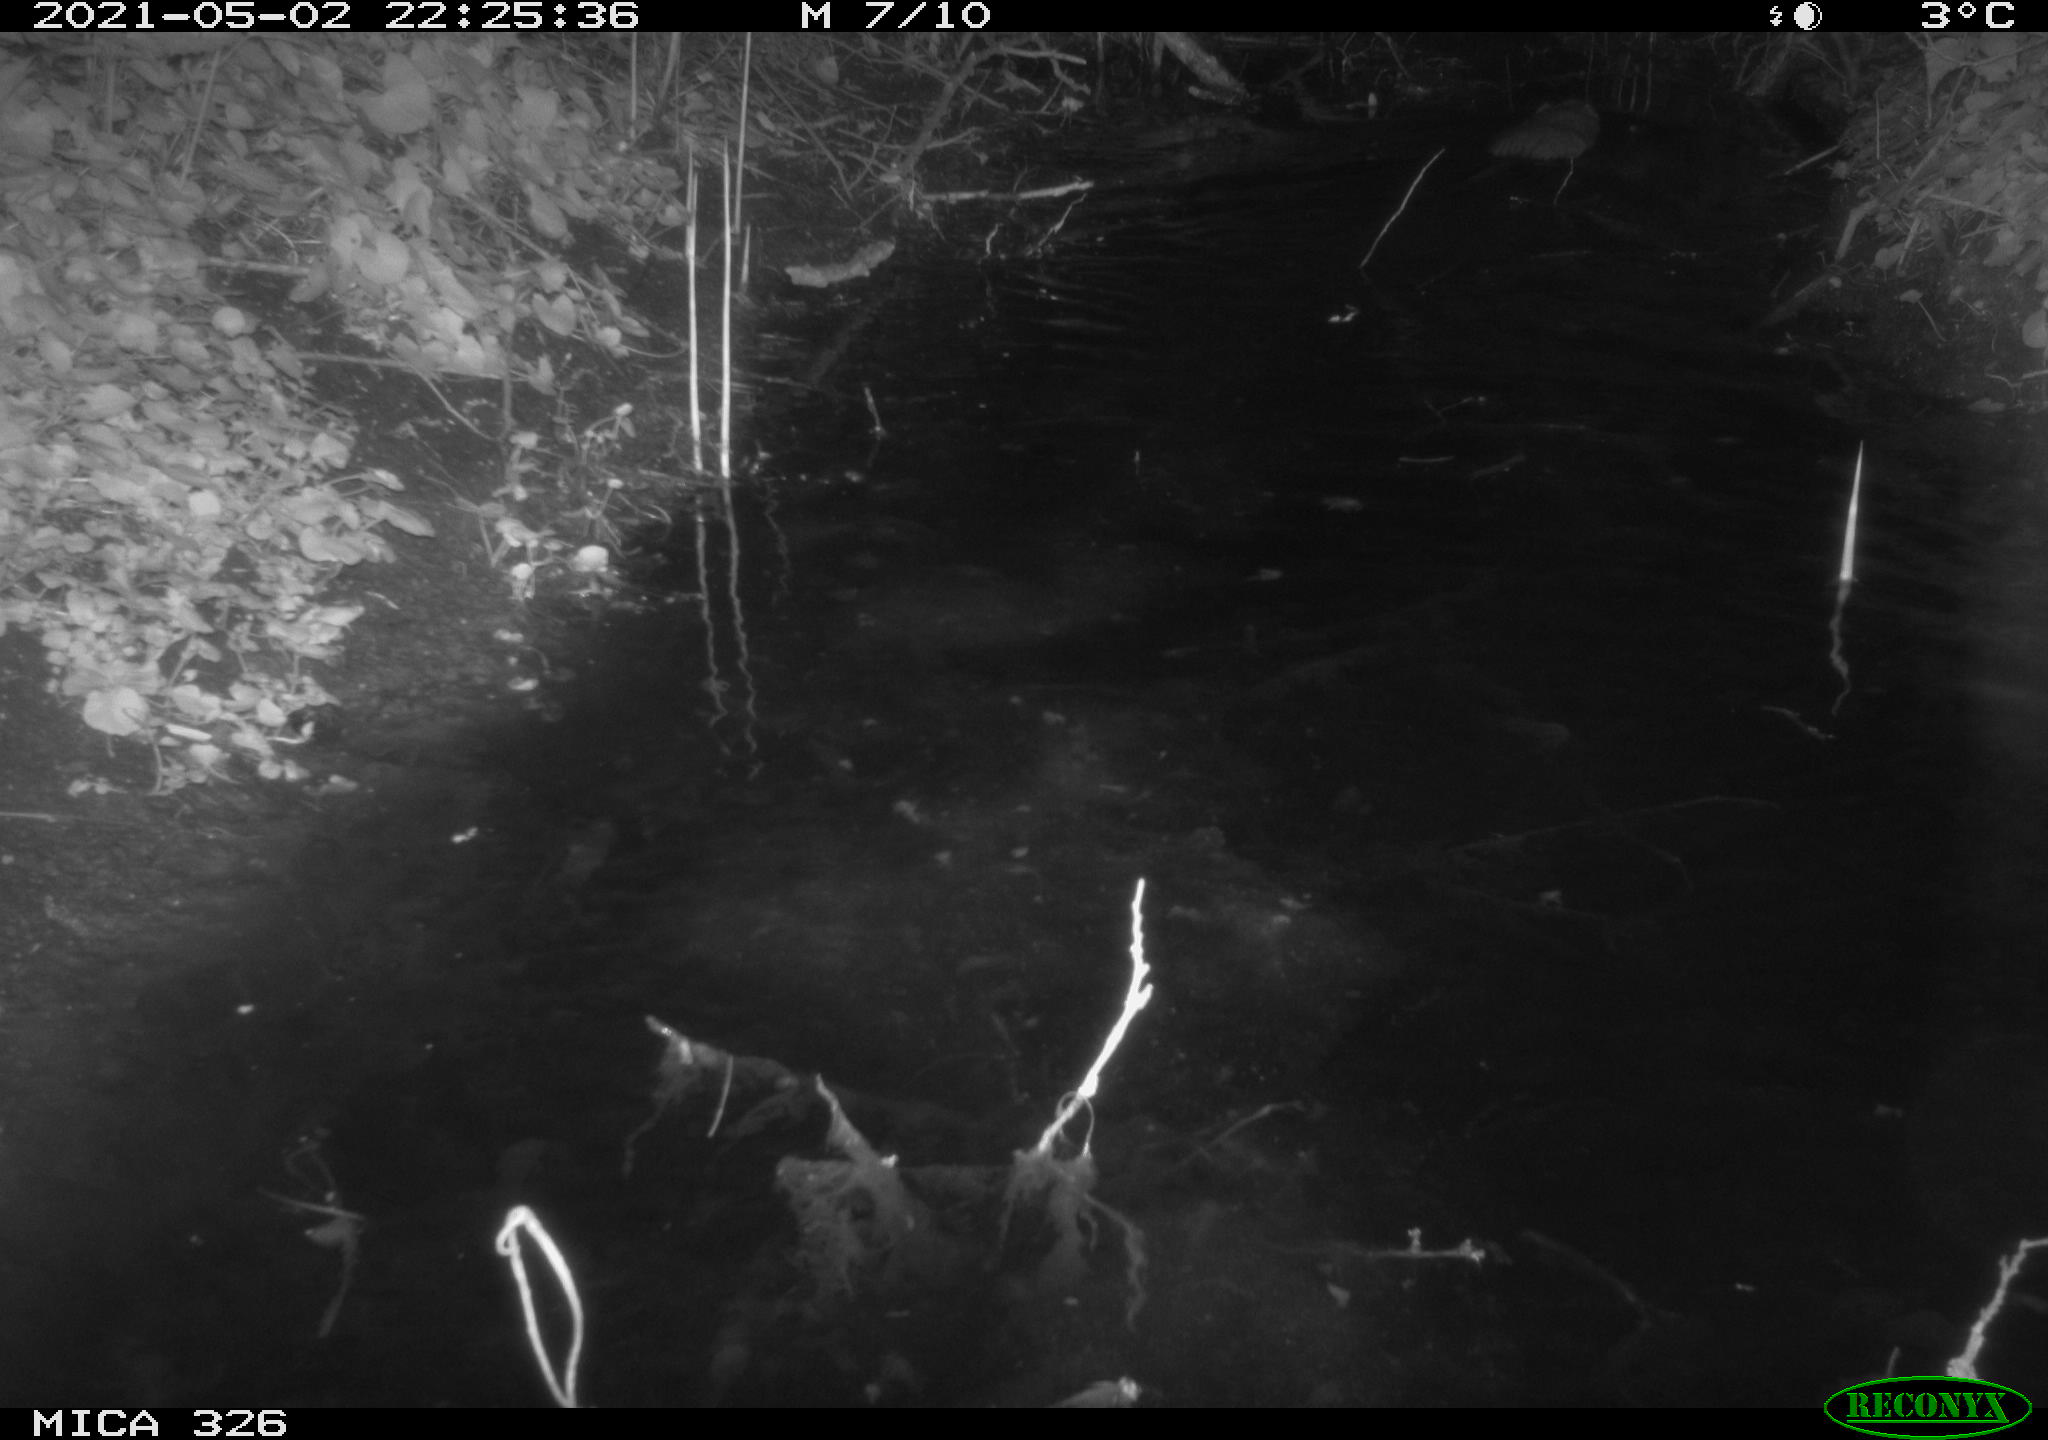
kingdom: Animalia
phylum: Chordata
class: Mammalia
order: Rodentia
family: Cricetidae
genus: Ondatra
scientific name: Ondatra zibethicus
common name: Muskrat
